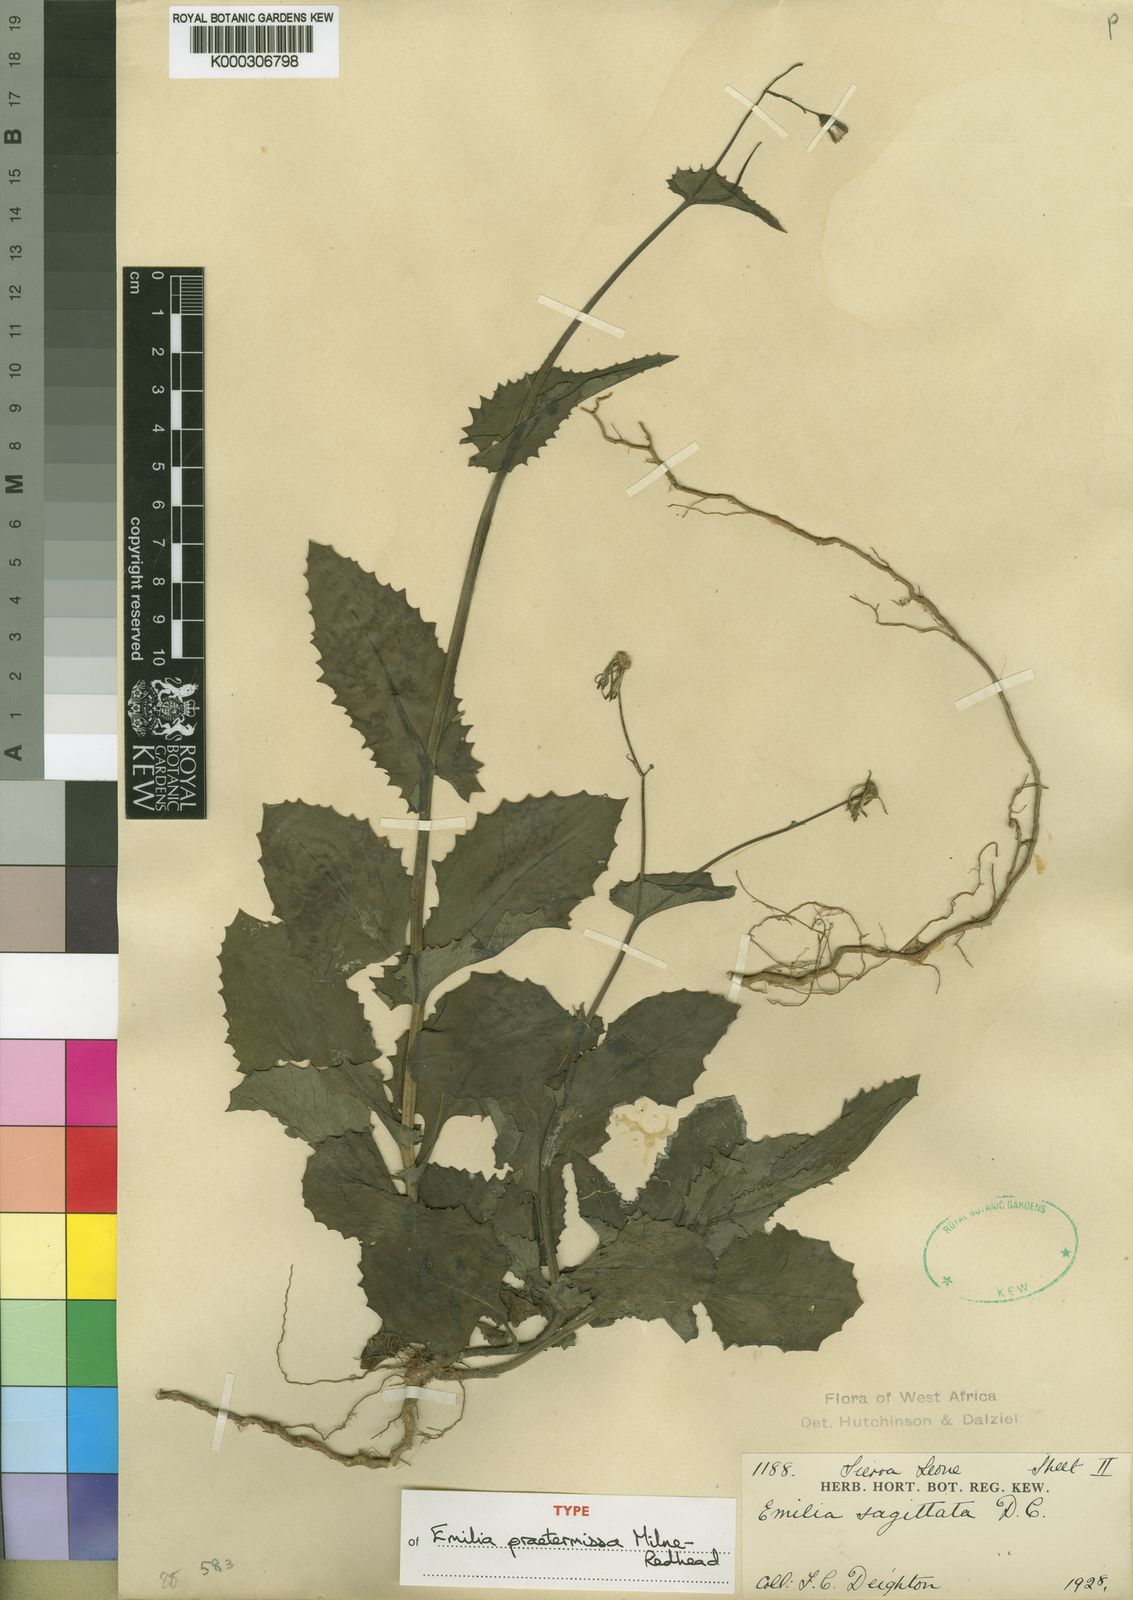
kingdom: Plantae
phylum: Tracheophyta
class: Magnoliopsida
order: Asterales
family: Asteraceae
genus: Emilia
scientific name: Emilia praetermissa
